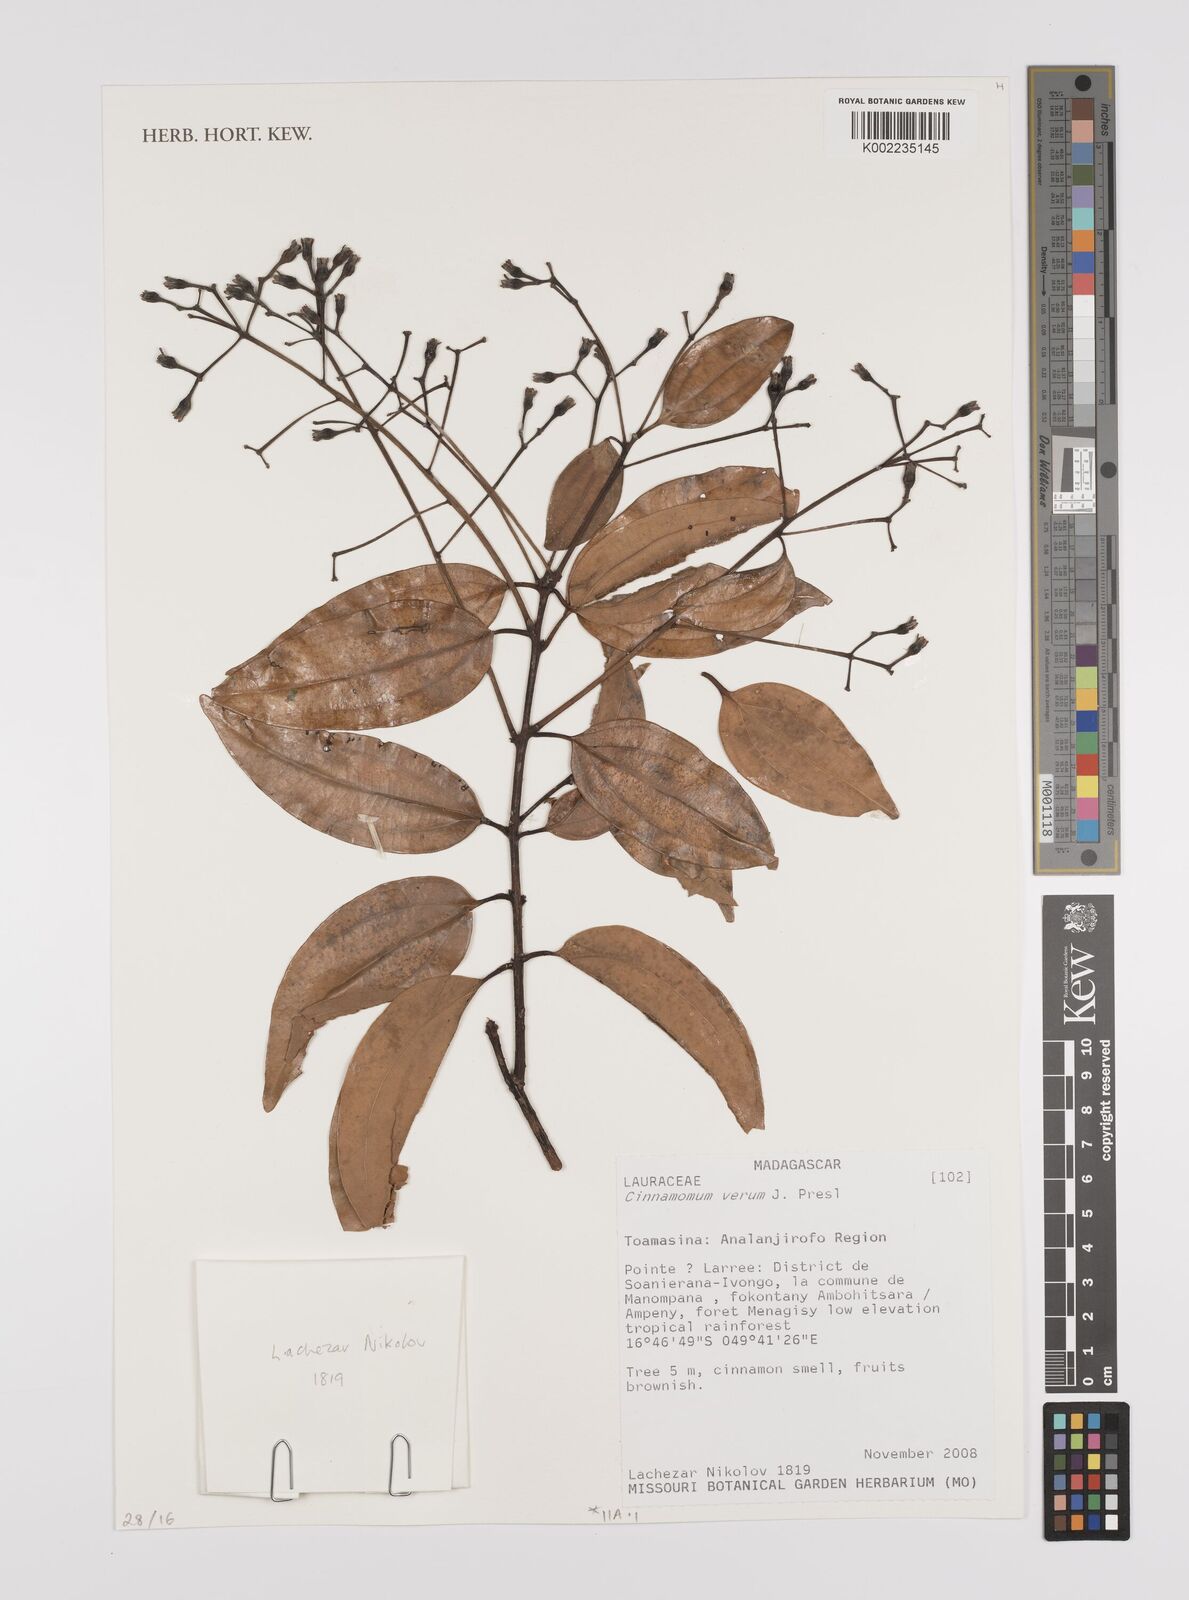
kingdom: Plantae
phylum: Tracheophyta
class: Magnoliopsida
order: Laurales
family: Lauraceae
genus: Cinnamomum
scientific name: Cinnamomum verum
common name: Cinnamon
